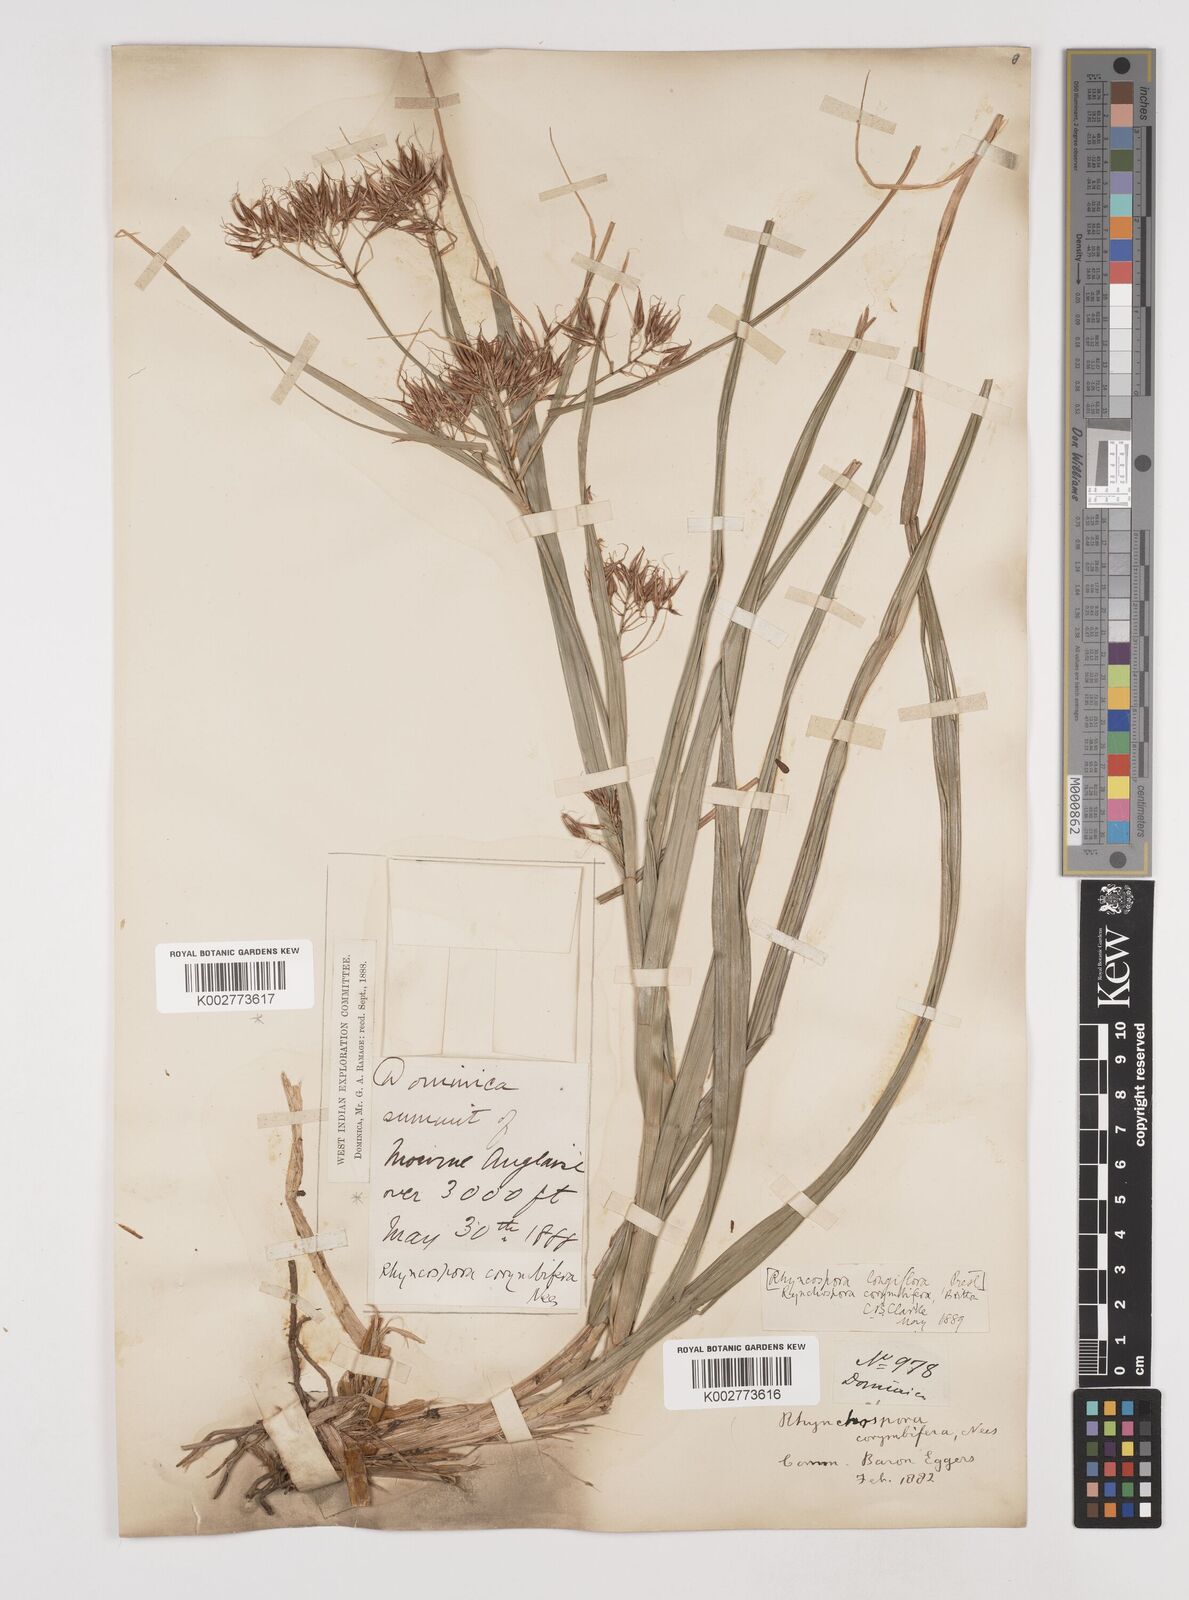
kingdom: Plantae
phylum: Tracheophyta
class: Liliopsida
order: Poales
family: Cyperaceae
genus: Rhynchospora
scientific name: Rhynchospora longiflora
